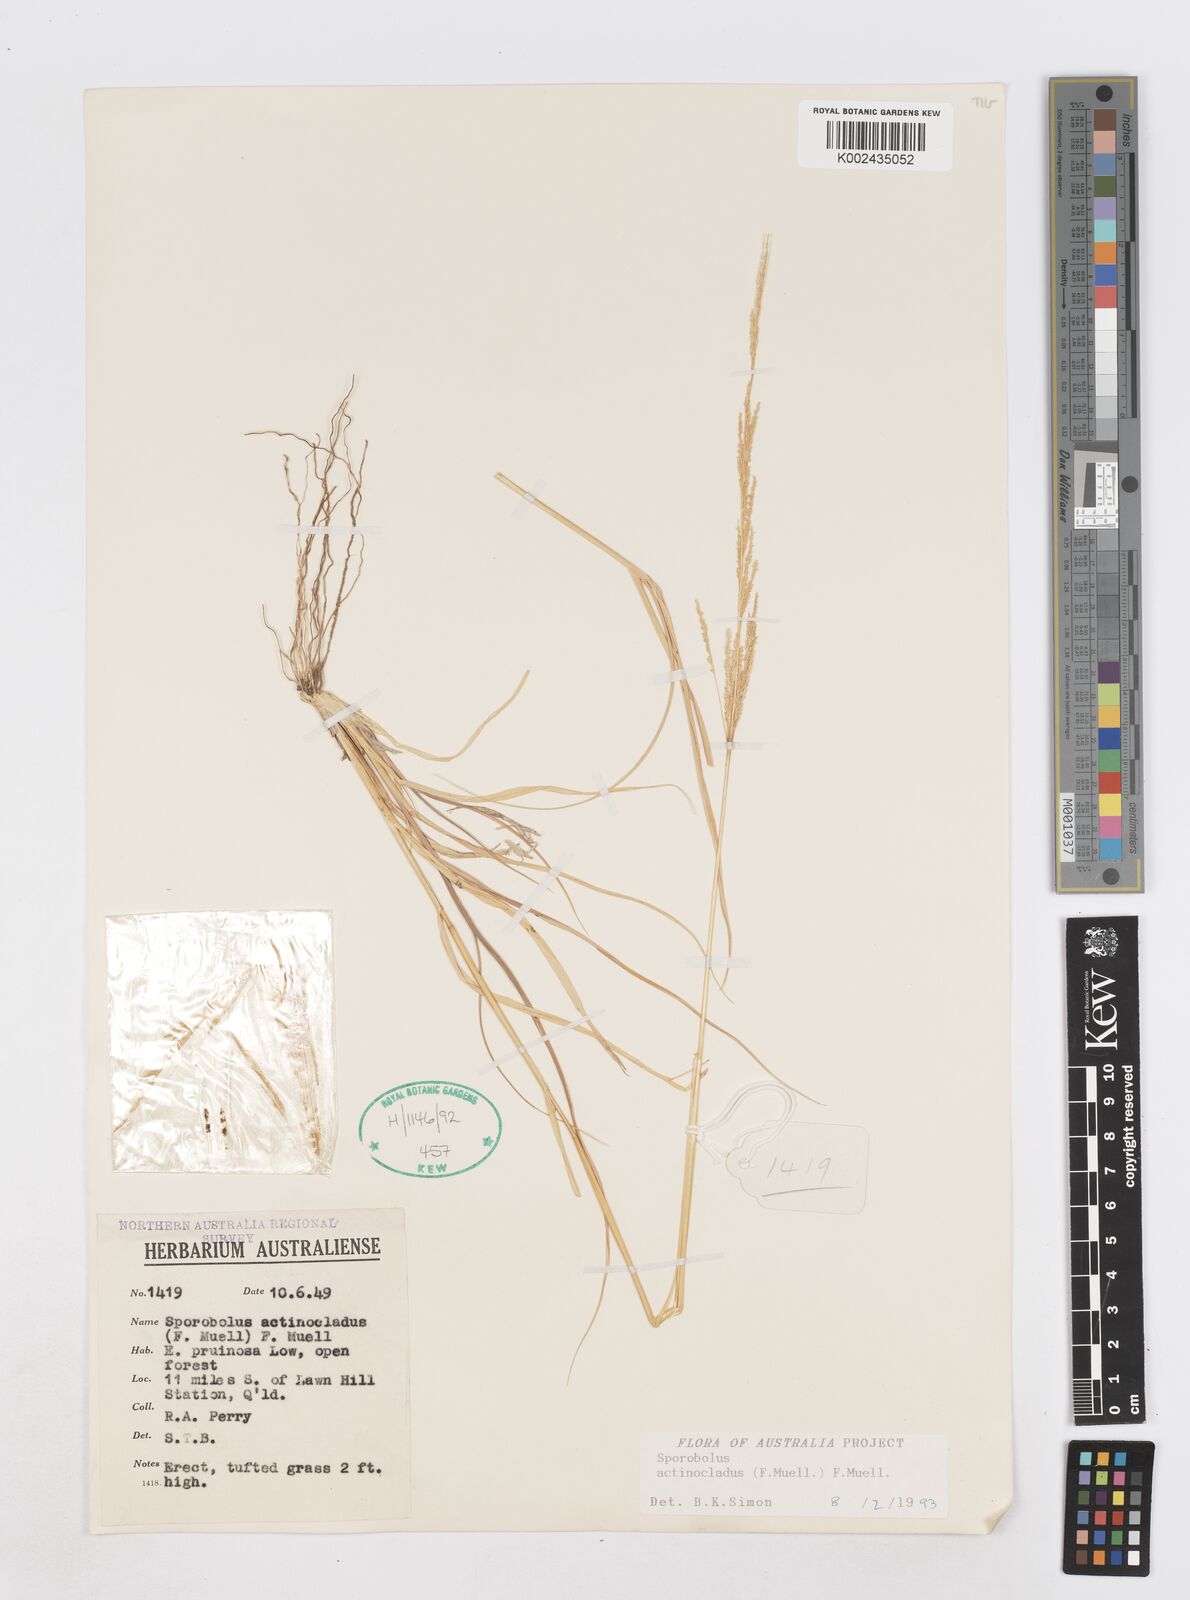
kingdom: Plantae
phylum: Tracheophyta
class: Liliopsida
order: Poales
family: Poaceae
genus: Sporobolus
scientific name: Sporobolus actinocladus
